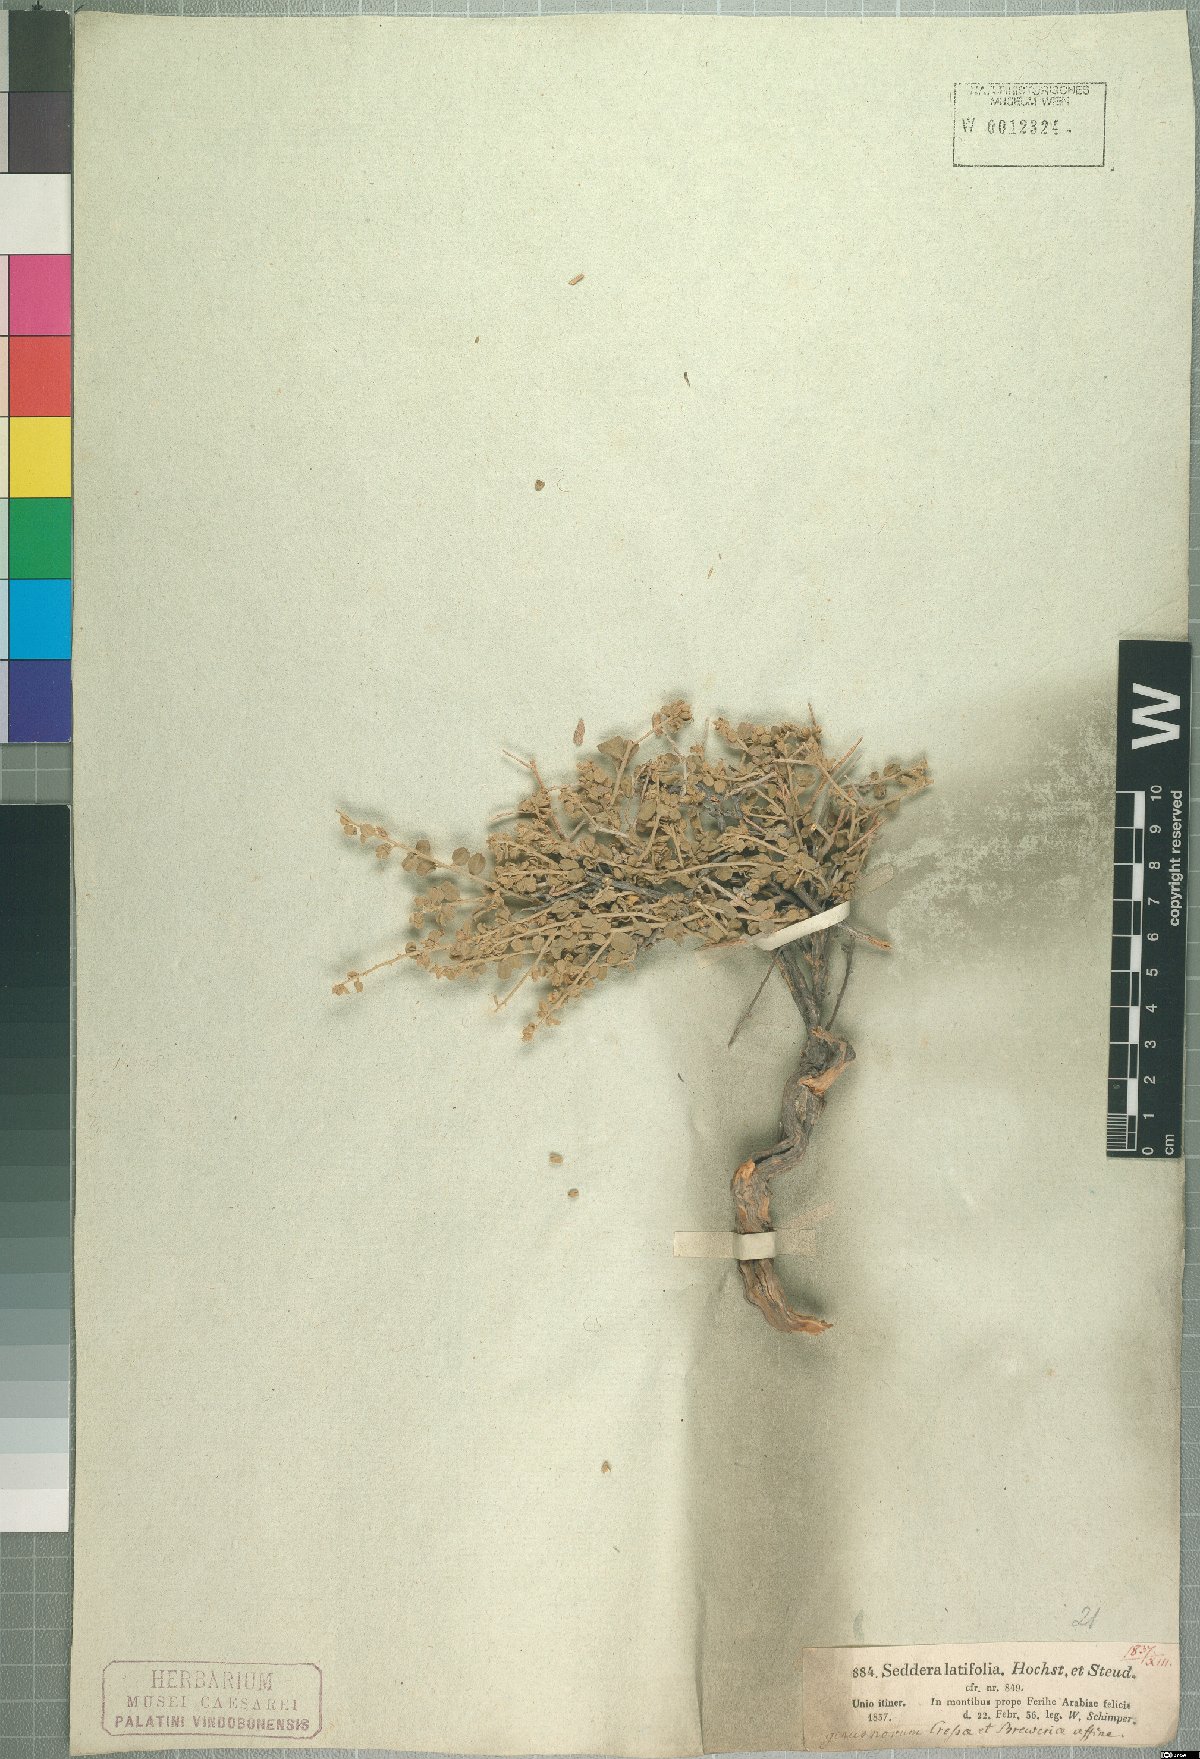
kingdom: Plantae
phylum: Tracheophyta
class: Magnoliopsida
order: Solanales
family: Convolvulaceae
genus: Seddera
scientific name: Seddera latifolia
